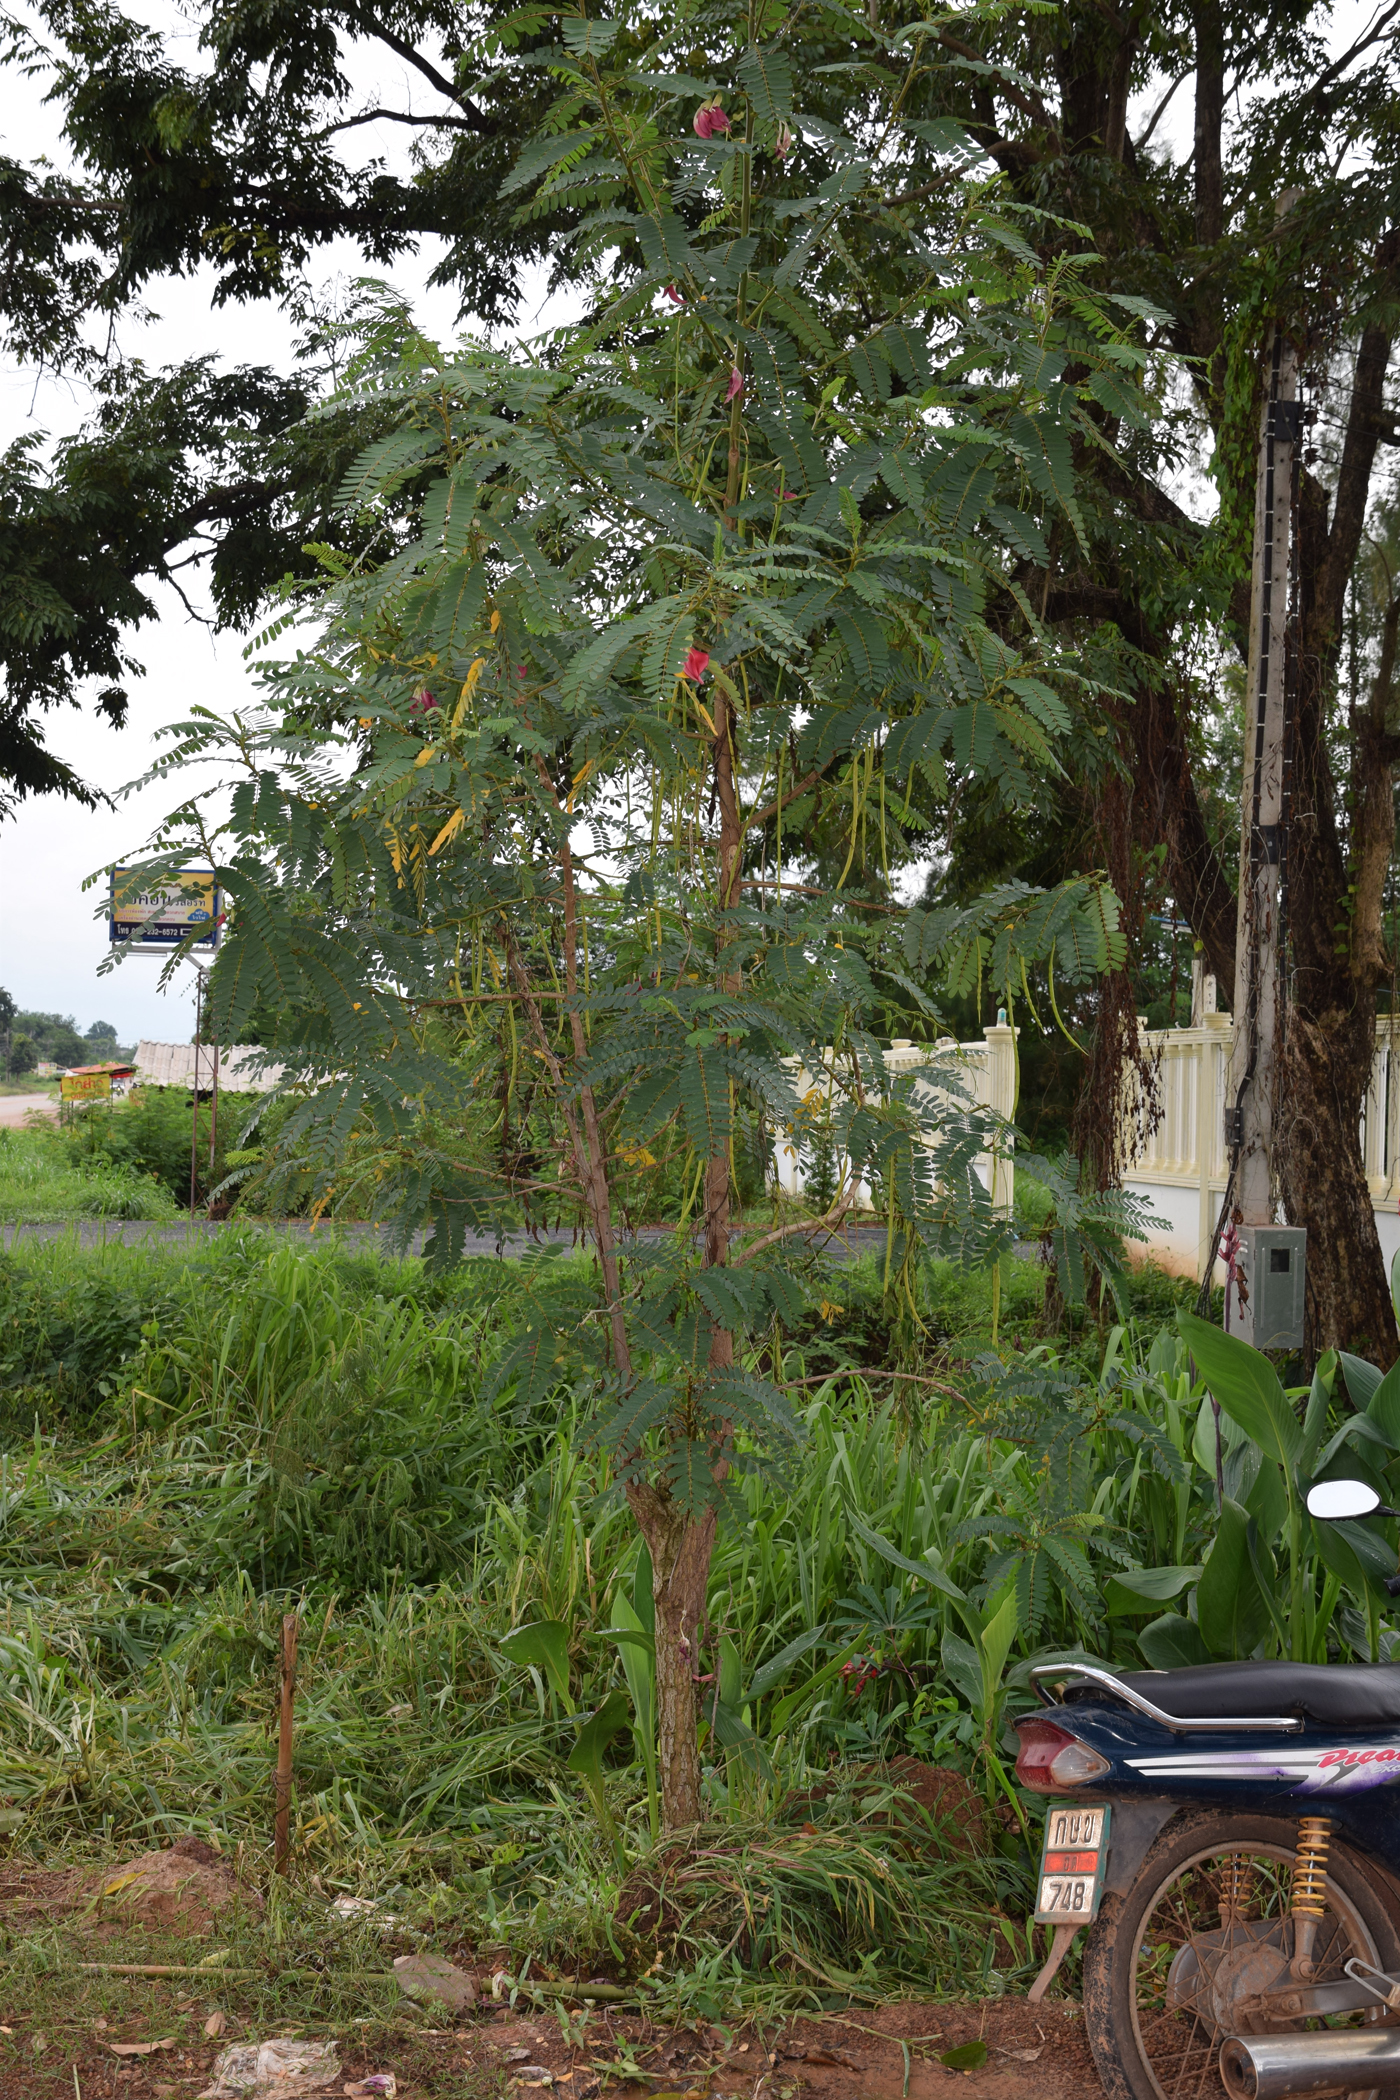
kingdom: Plantae
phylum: Tracheophyta
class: Magnoliopsida
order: Fabales
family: Fabaceae
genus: Sesbania
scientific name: Sesbania grandiflora
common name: Vegetable-hummingbird
